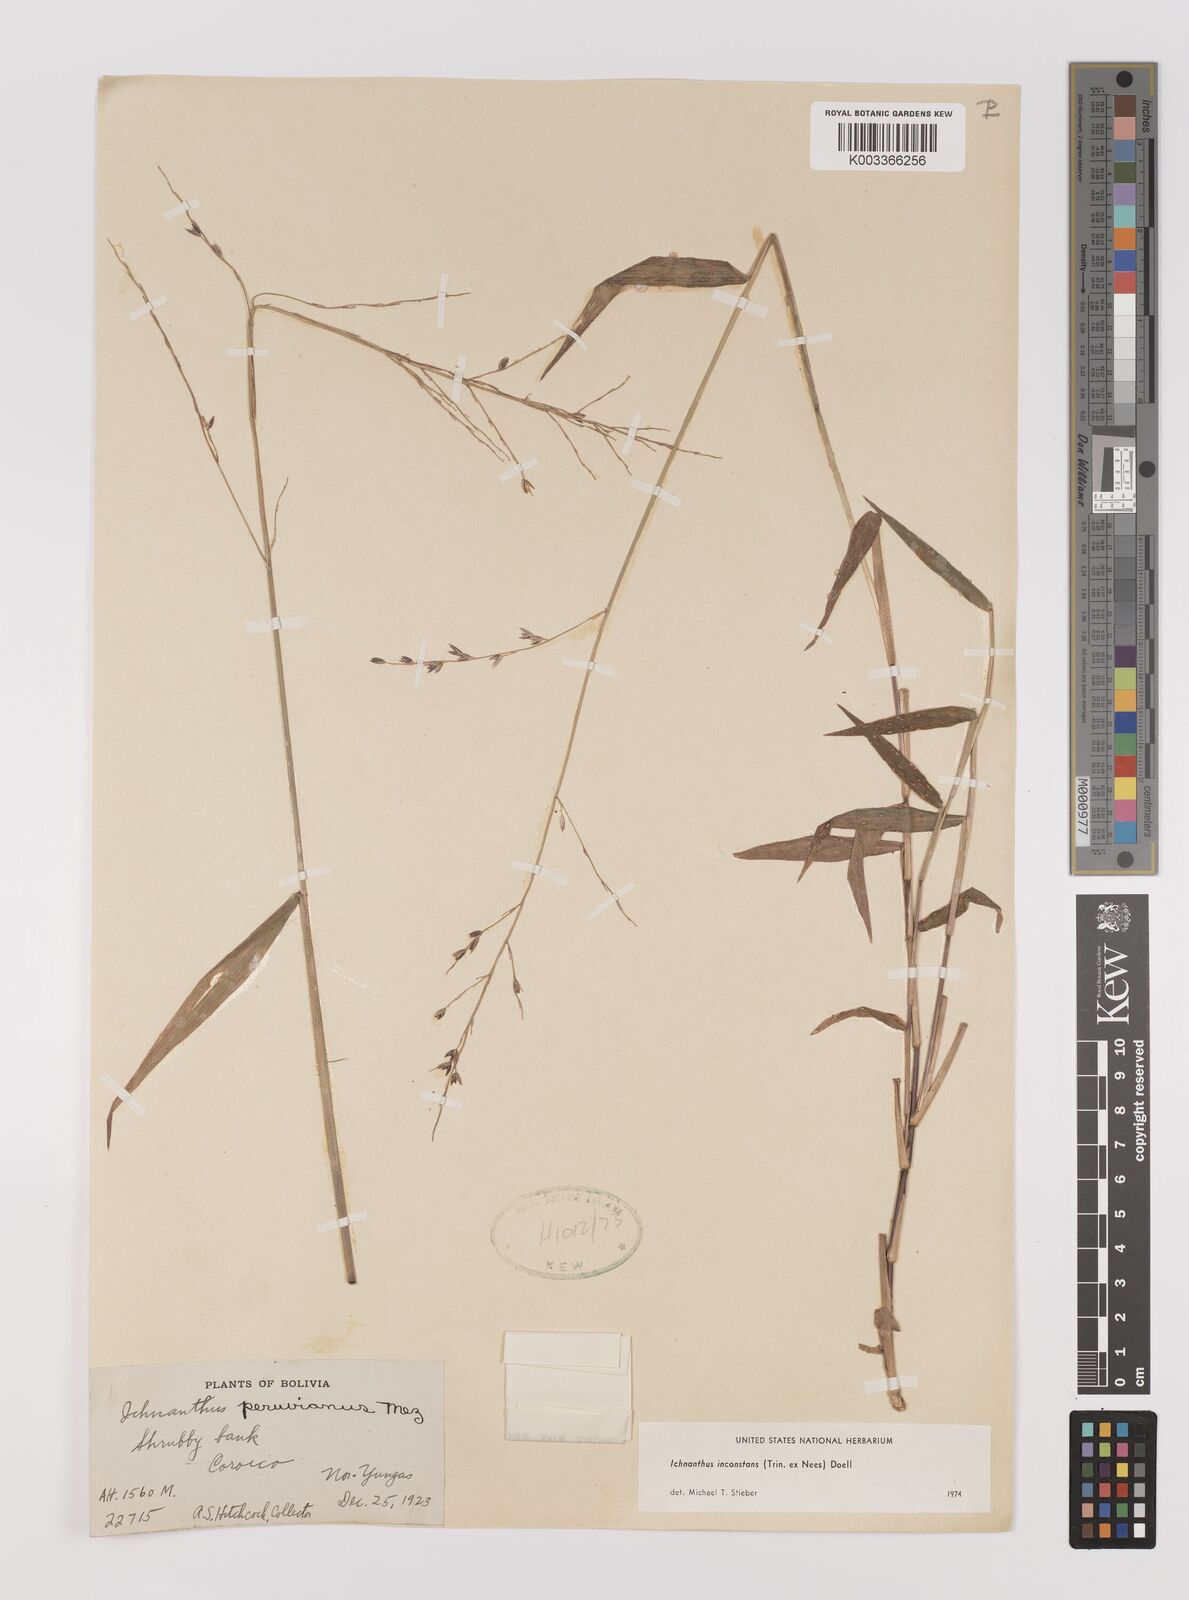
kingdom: Plantae
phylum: Tracheophyta
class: Liliopsida
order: Poales
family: Poaceae
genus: Ichnanthus
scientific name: Ichnanthus inconstans
